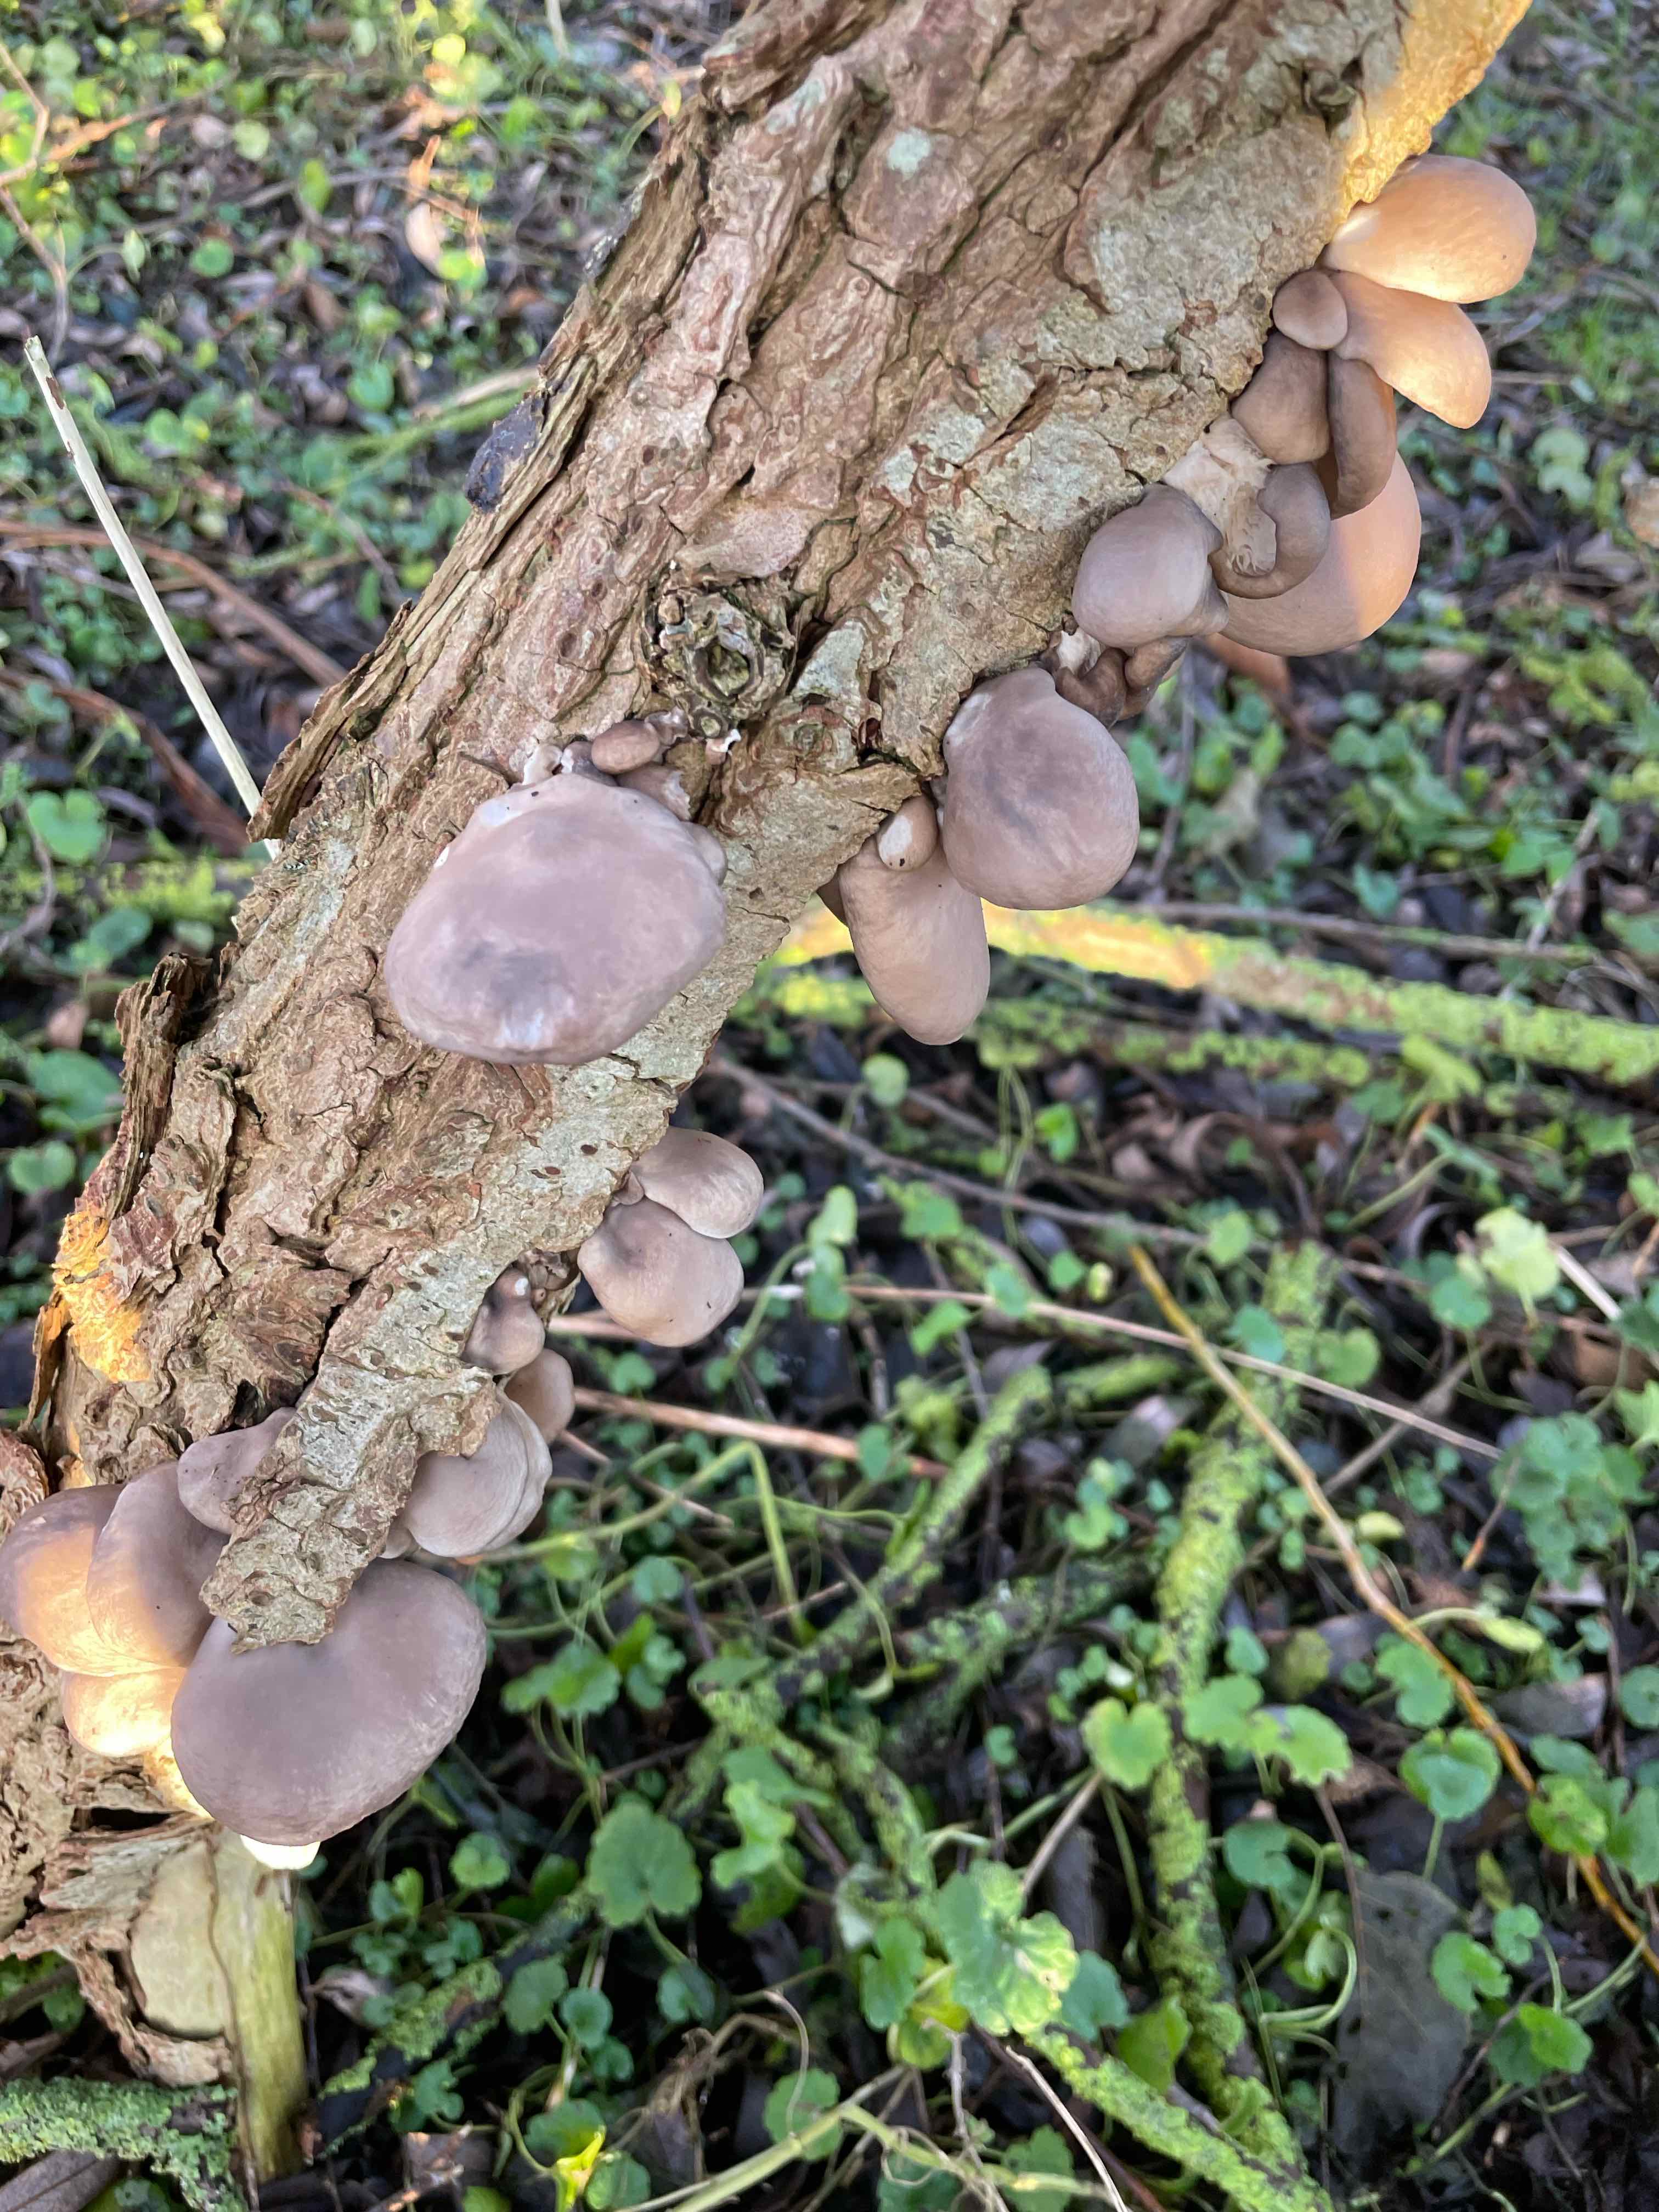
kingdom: Fungi
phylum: Basidiomycota
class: Agaricomycetes
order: Agaricales
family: Pleurotaceae
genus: Pleurotus
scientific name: Pleurotus ostreatus
